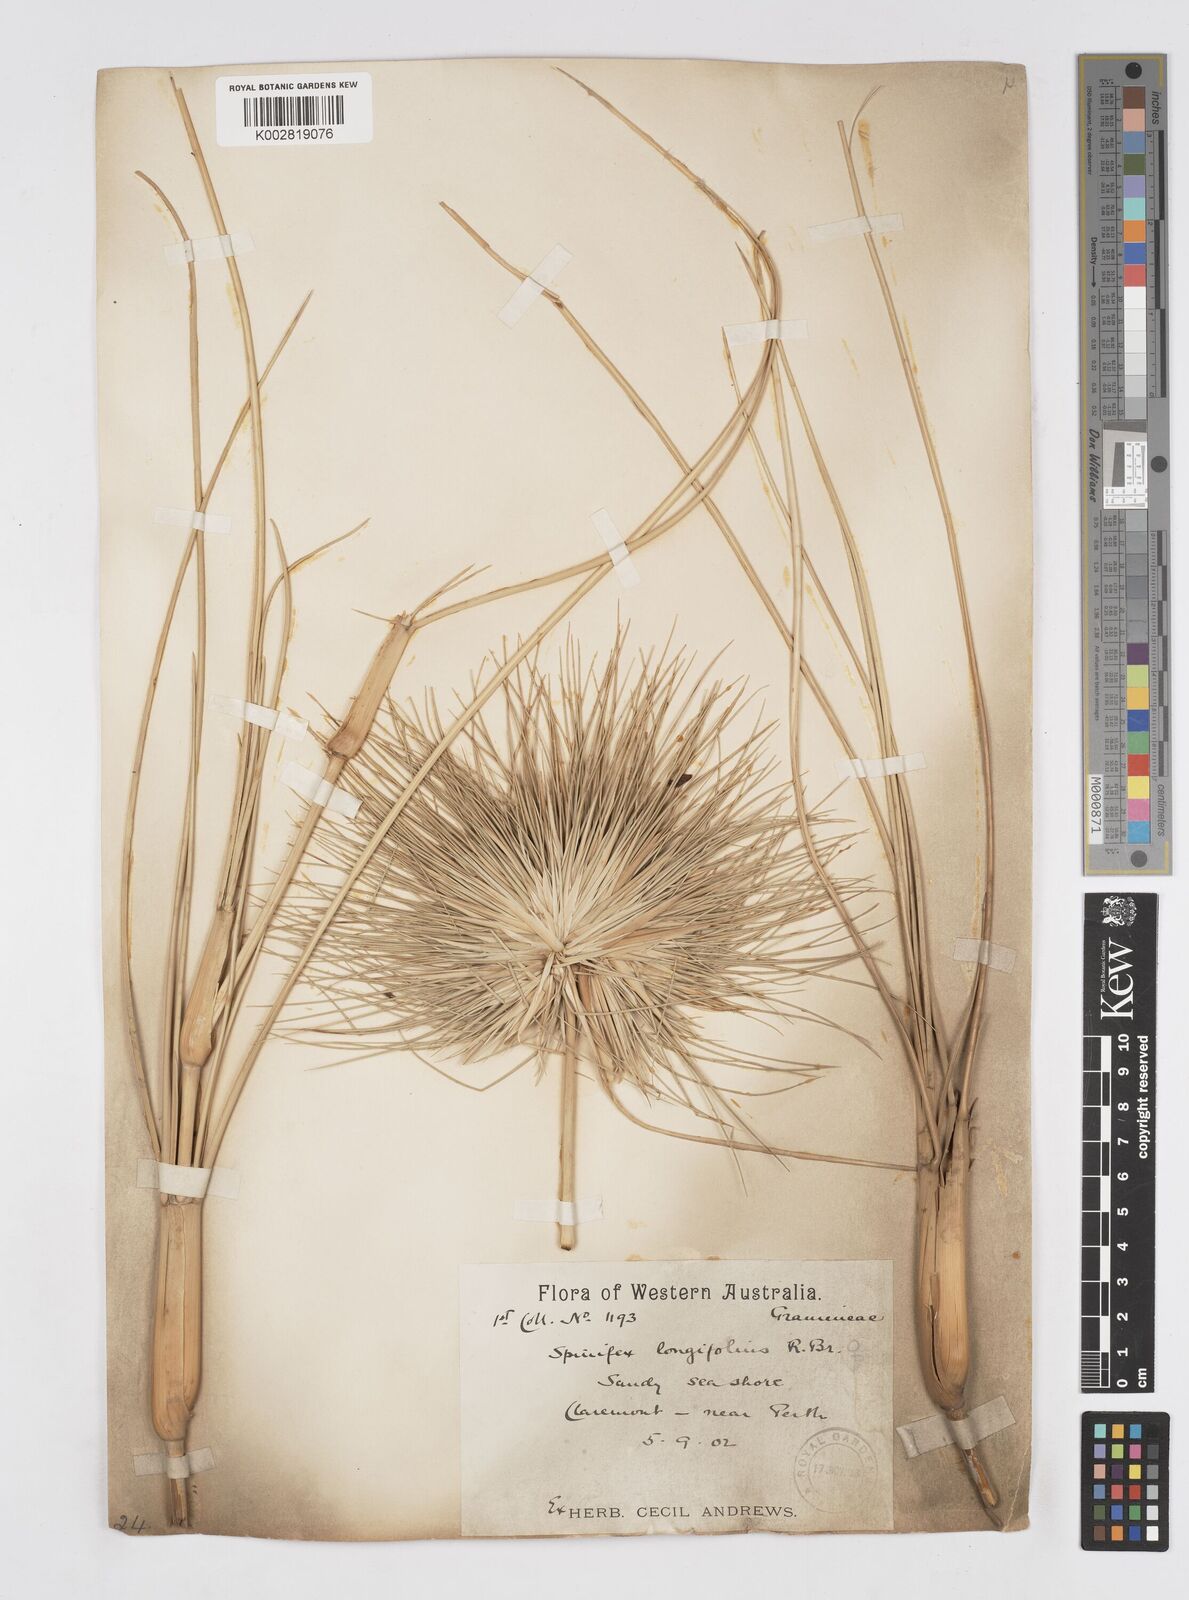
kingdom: Plantae
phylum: Tracheophyta
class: Liliopsida
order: Poales
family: Poaceae
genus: Spinifex
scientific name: Spinifex longifolius
